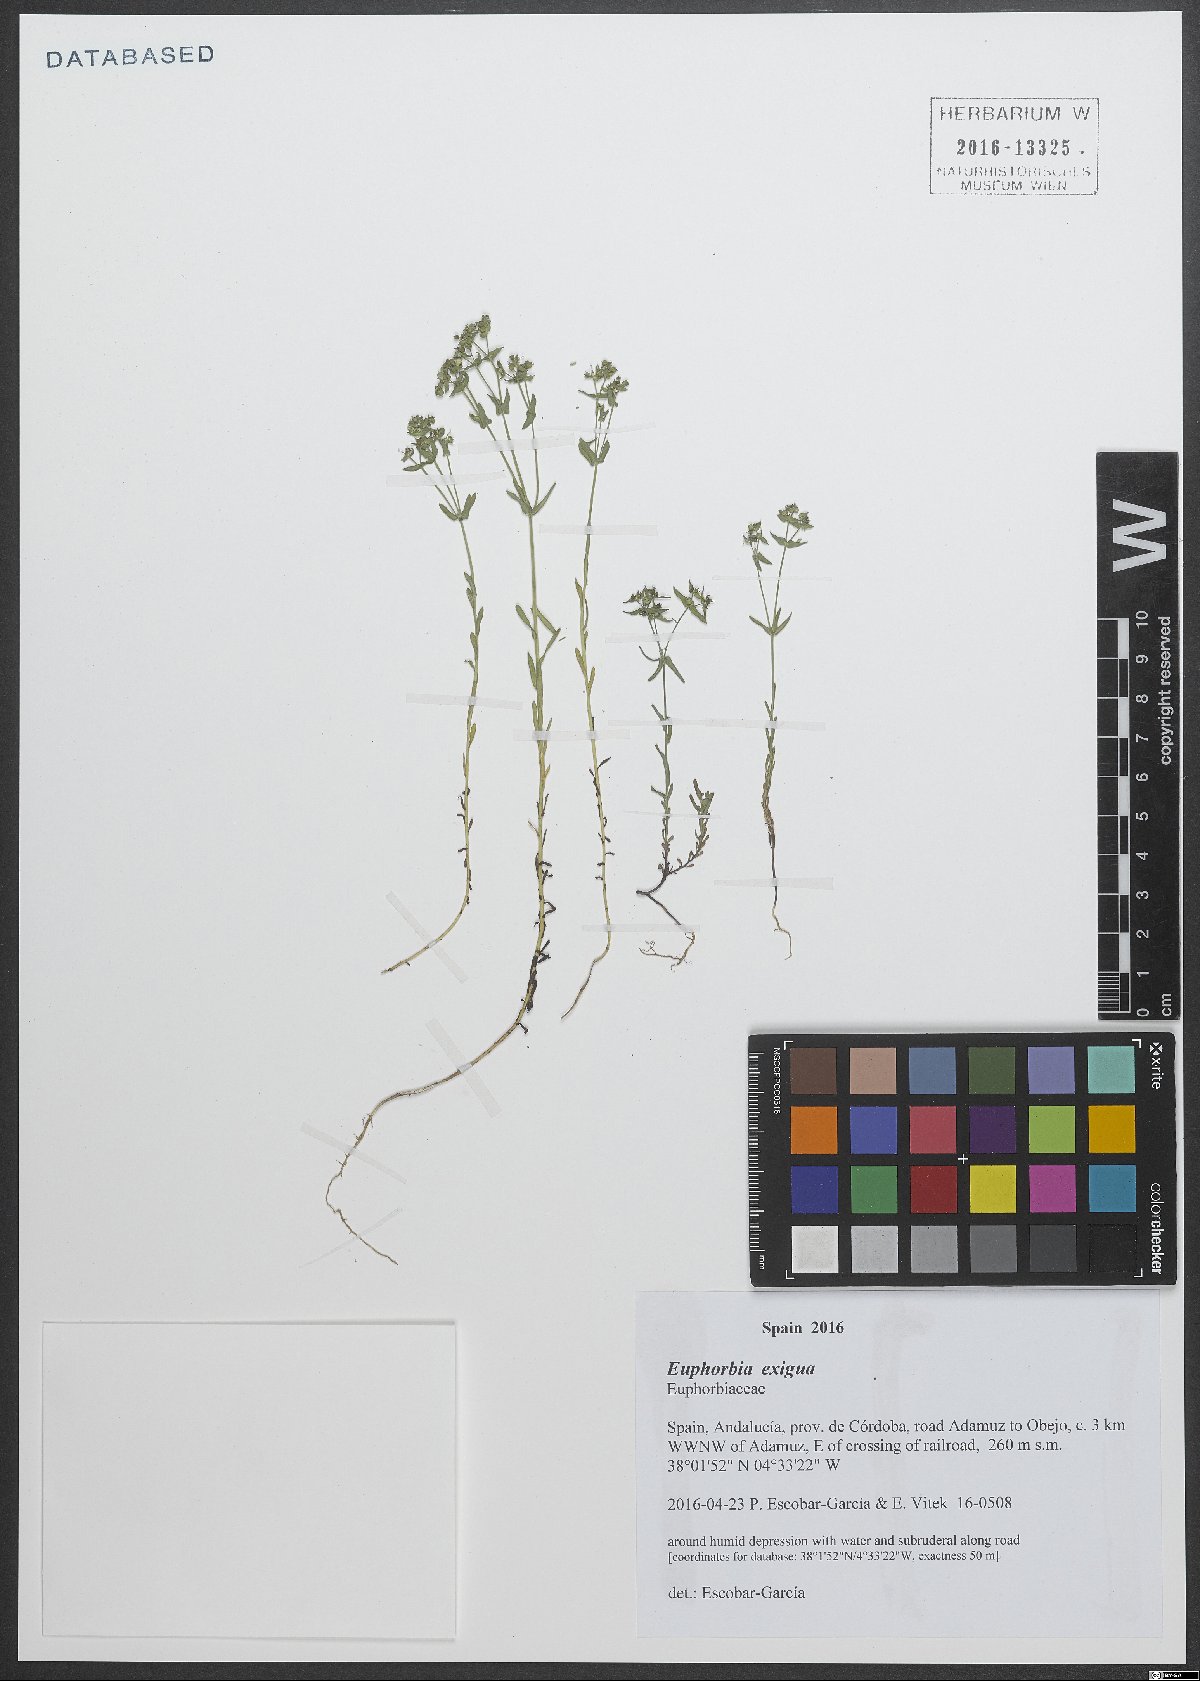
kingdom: Plantae
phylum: Tracheophyta
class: Magnoliopsida
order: Malpighiales
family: Euphorbiaceae
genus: Euphorbia
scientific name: Euphorbia exigua
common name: Dwarf spurge
